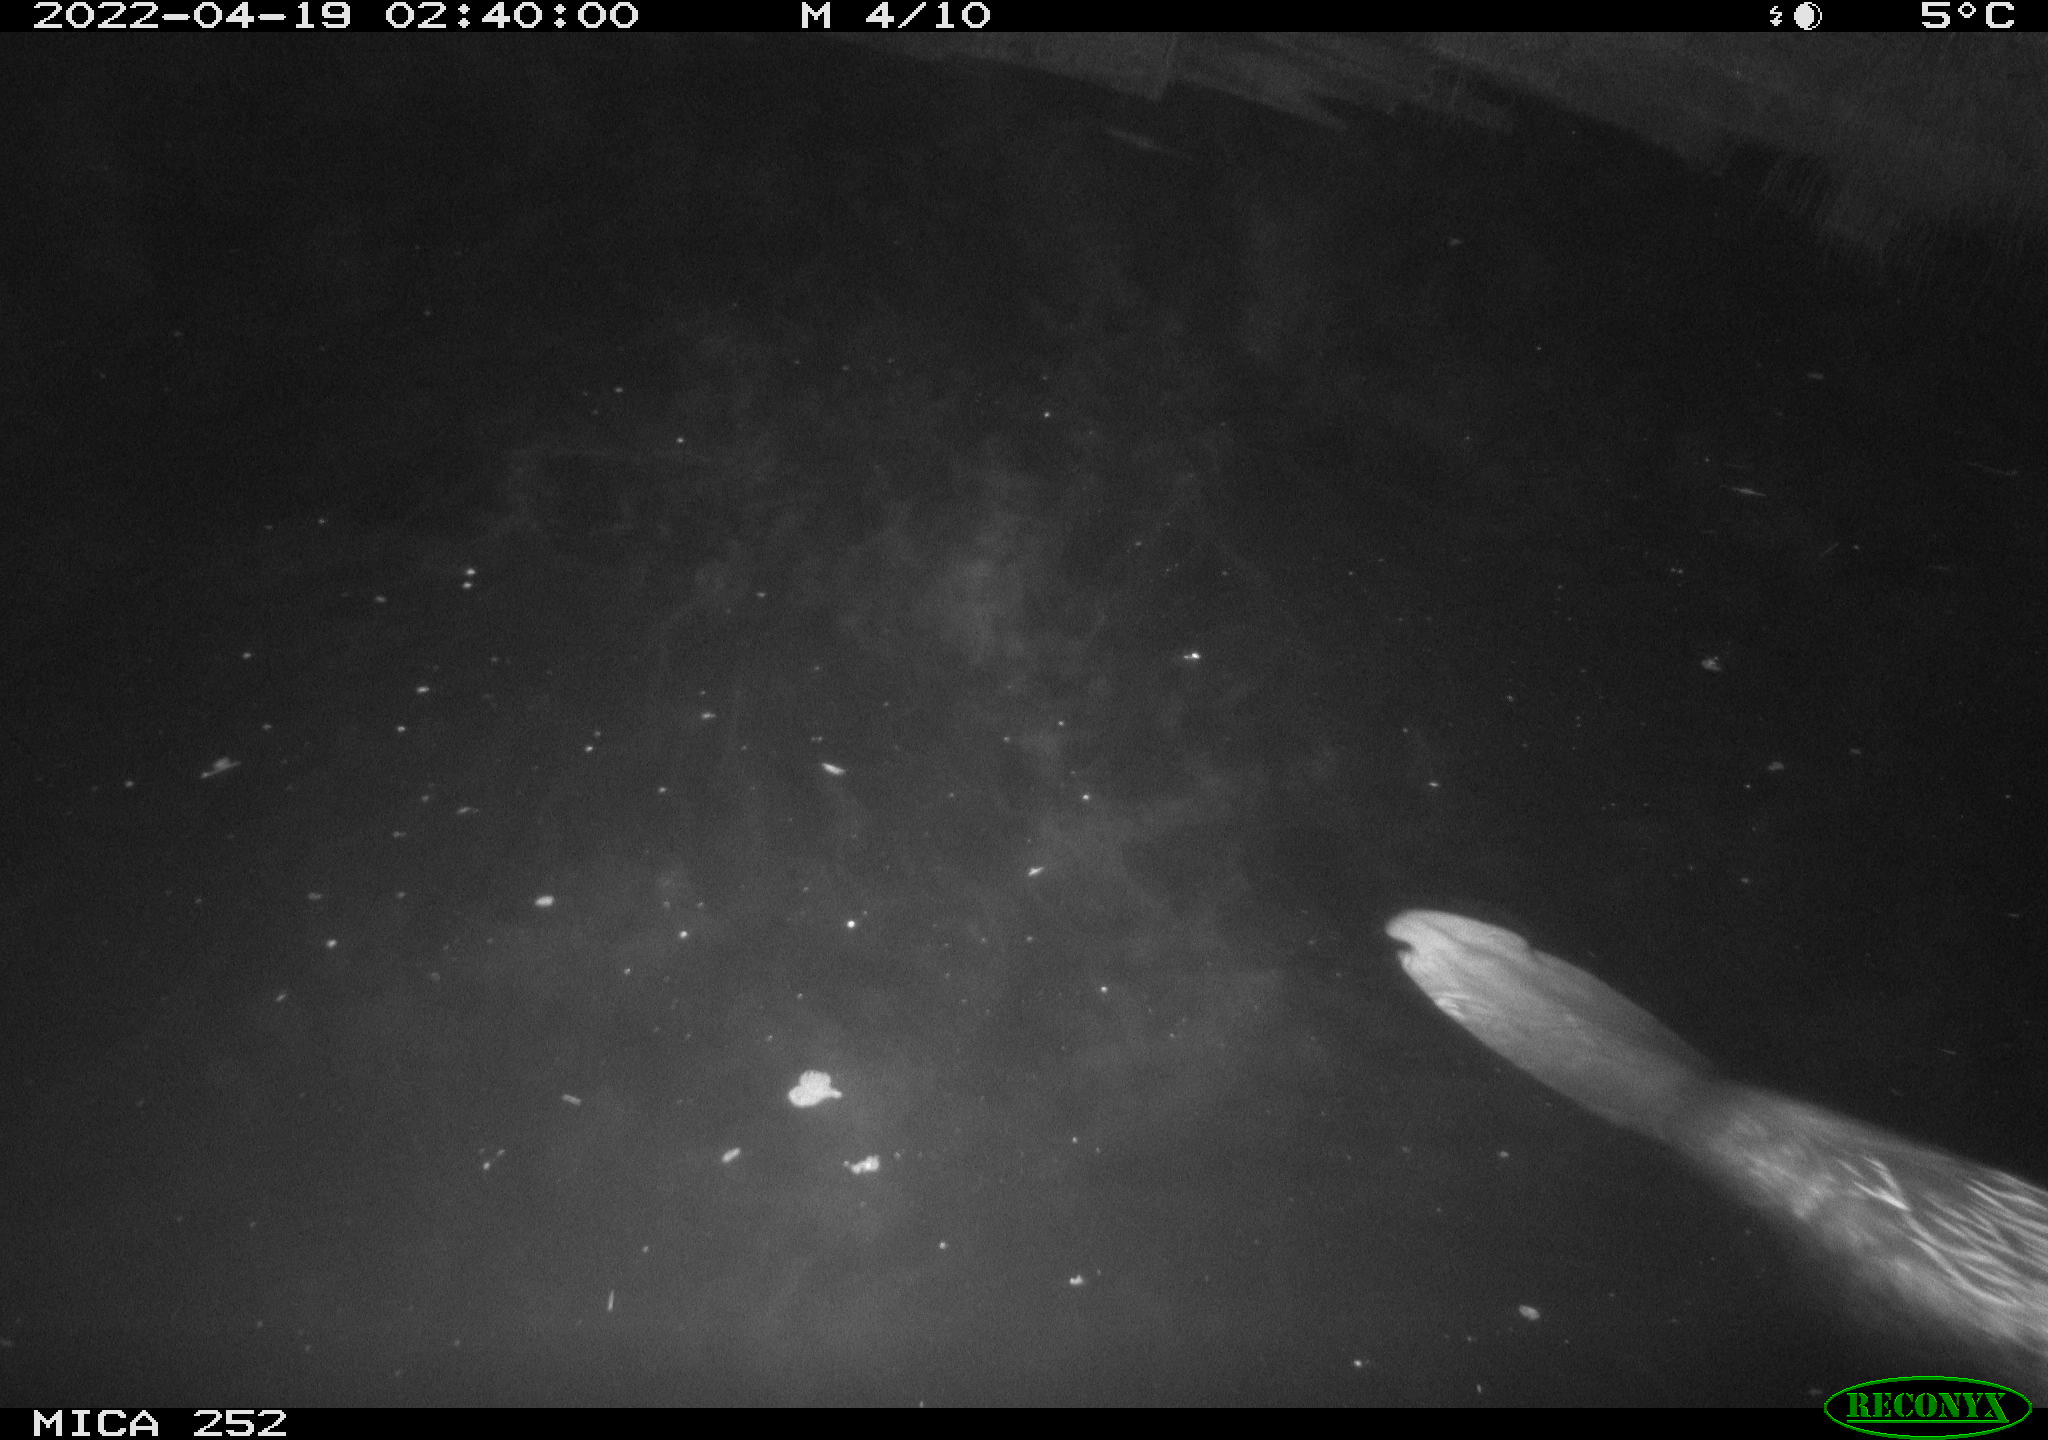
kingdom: Animalia
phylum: Chordata
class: Mammalia
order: Rodentia
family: Castoridae
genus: Castor
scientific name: Castor fiber
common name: Eurasian beaver
